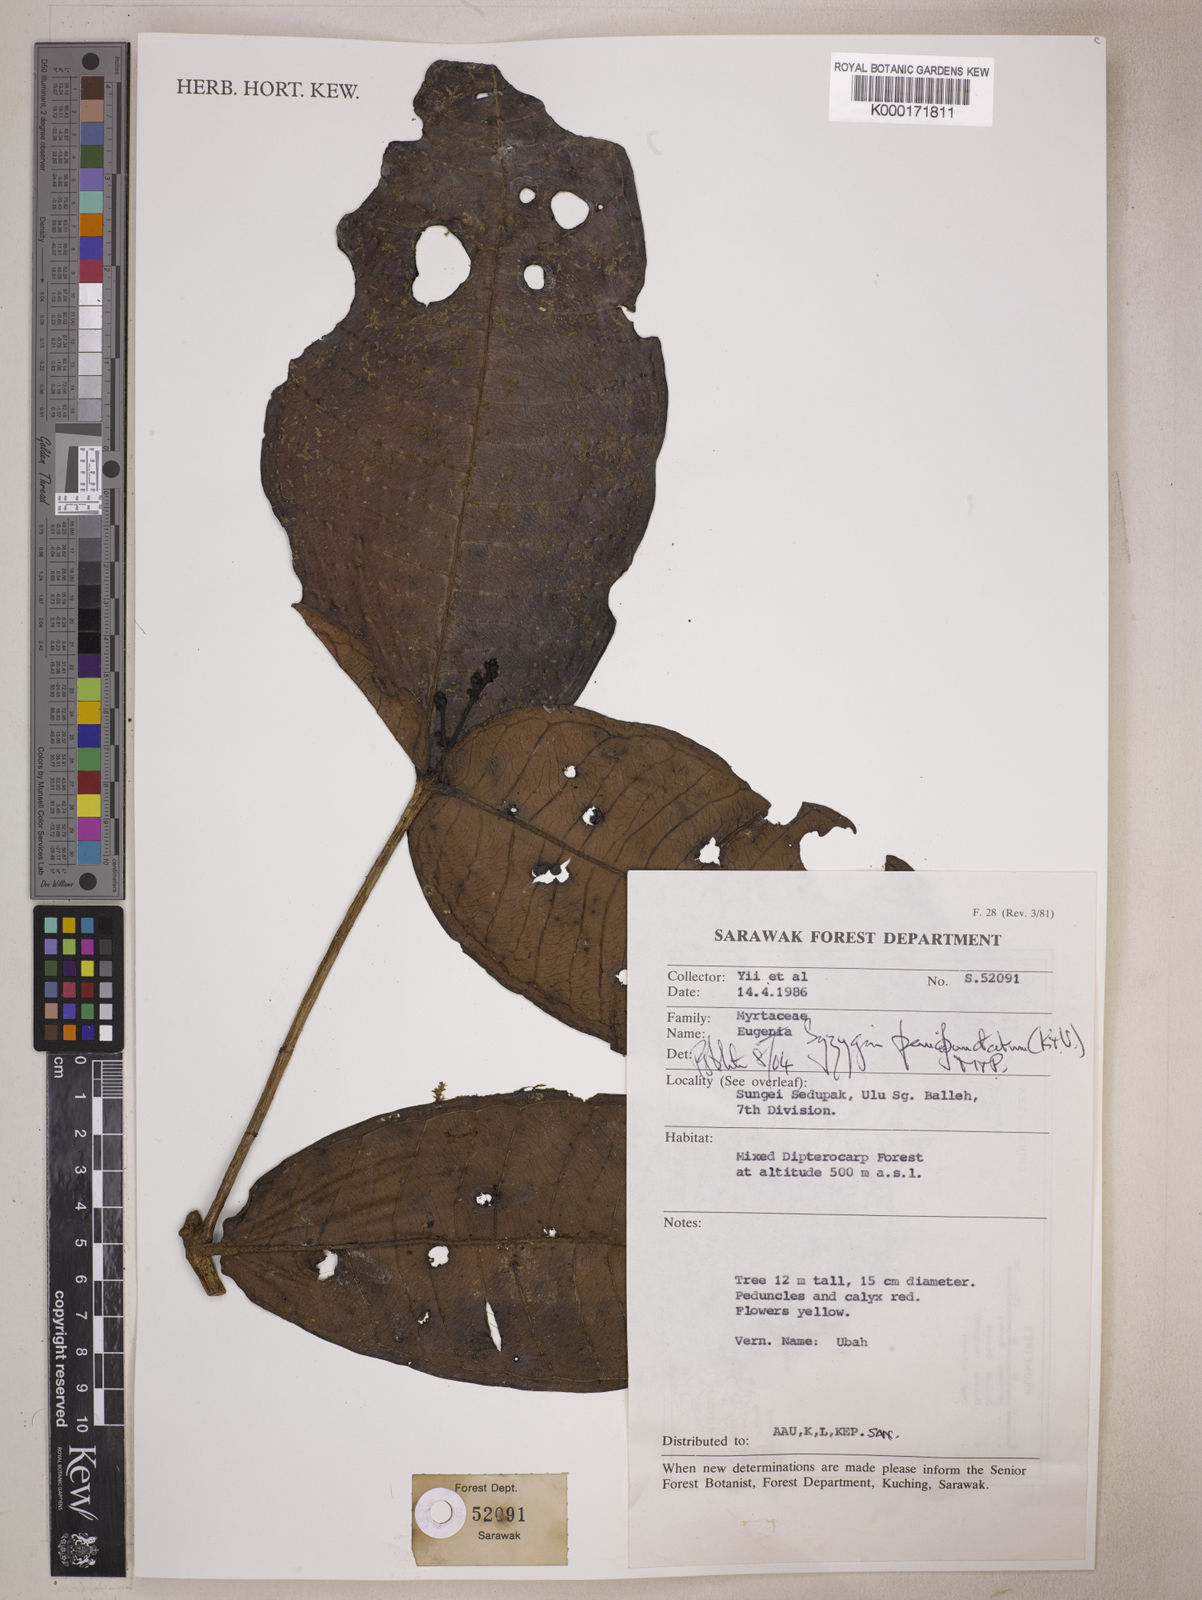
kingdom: Plantae
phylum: Tracheophyta
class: Magnoliopsida
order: Myrtales
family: Myrtaceae
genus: Syzygium
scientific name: Syzygium paucipunctatum
